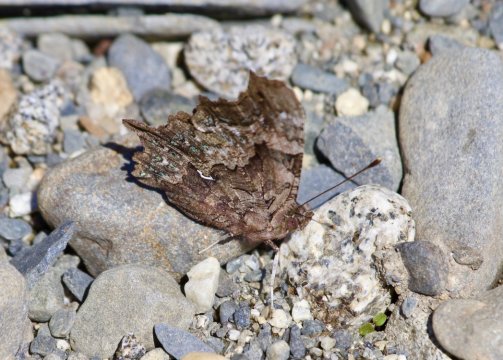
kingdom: Animalia
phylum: Arthropoda
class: Insecta
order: Lepidoptera
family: Nymphalidae
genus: Polygonia
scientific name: Polygonia faunus
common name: Green Comma
